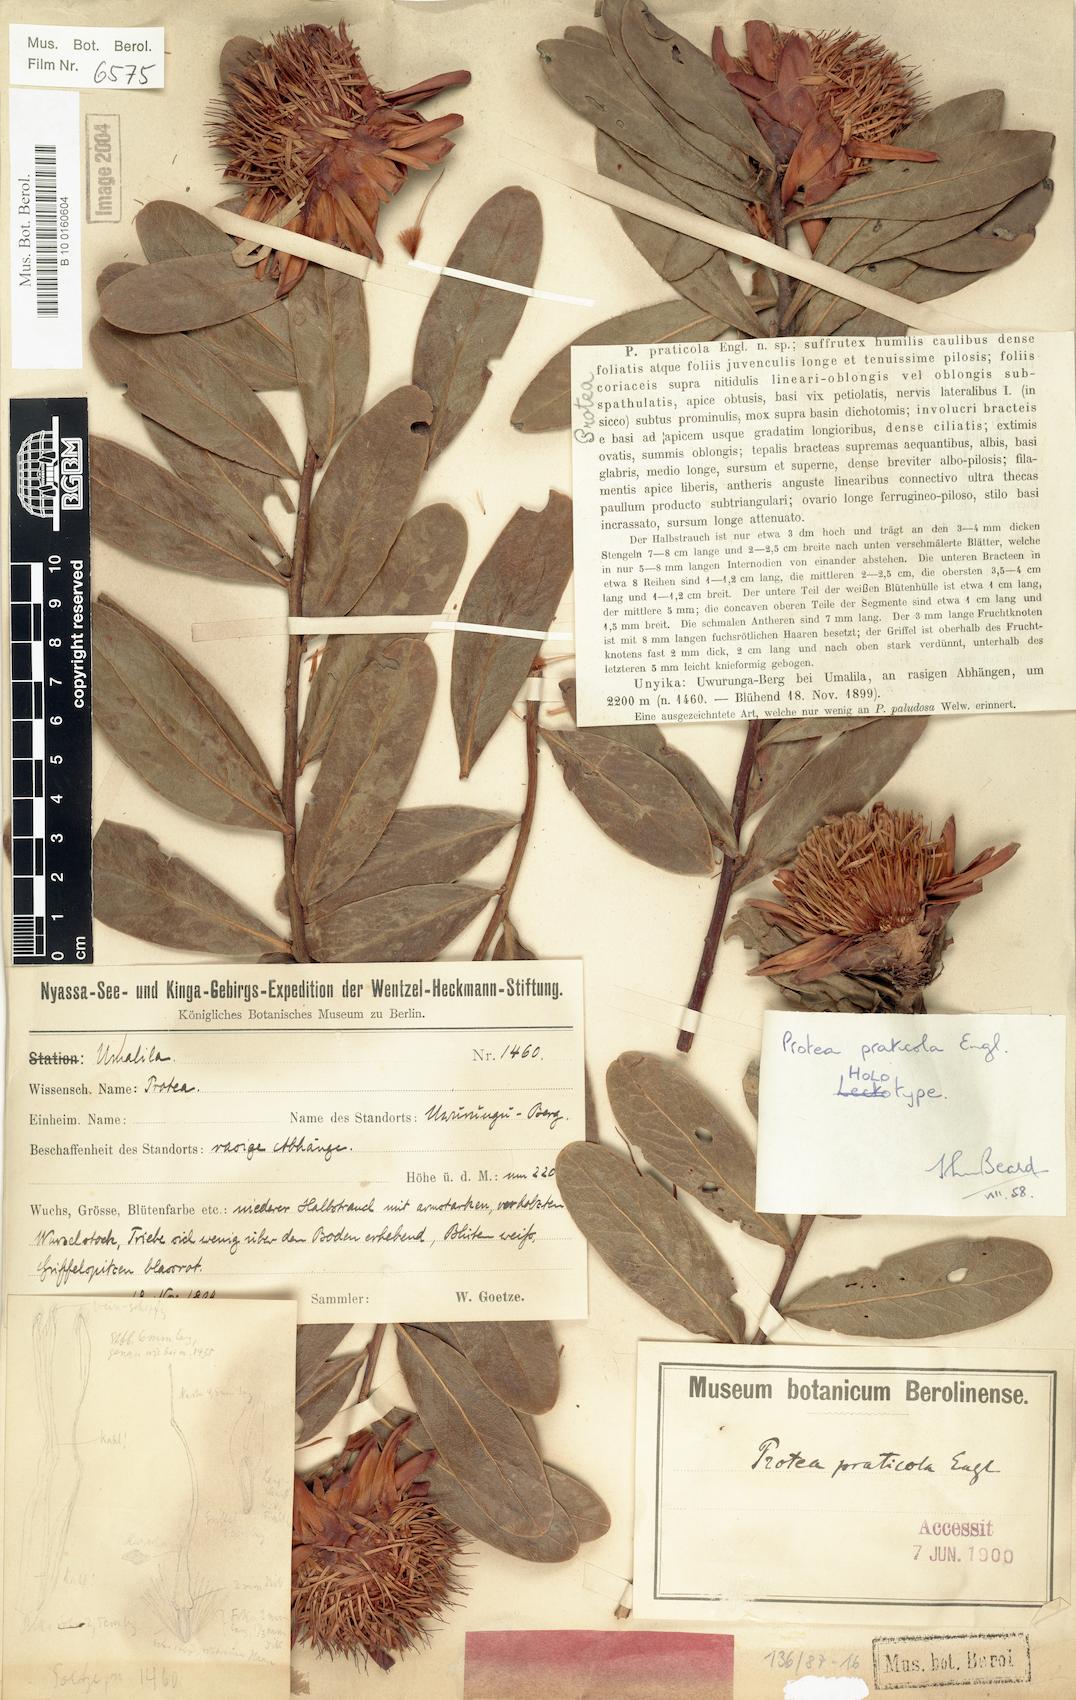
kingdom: Plantae
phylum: Tracheophyta
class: Magnoliopsida
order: Proteales
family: Proteaceae
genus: Protea
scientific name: Protea praticola
